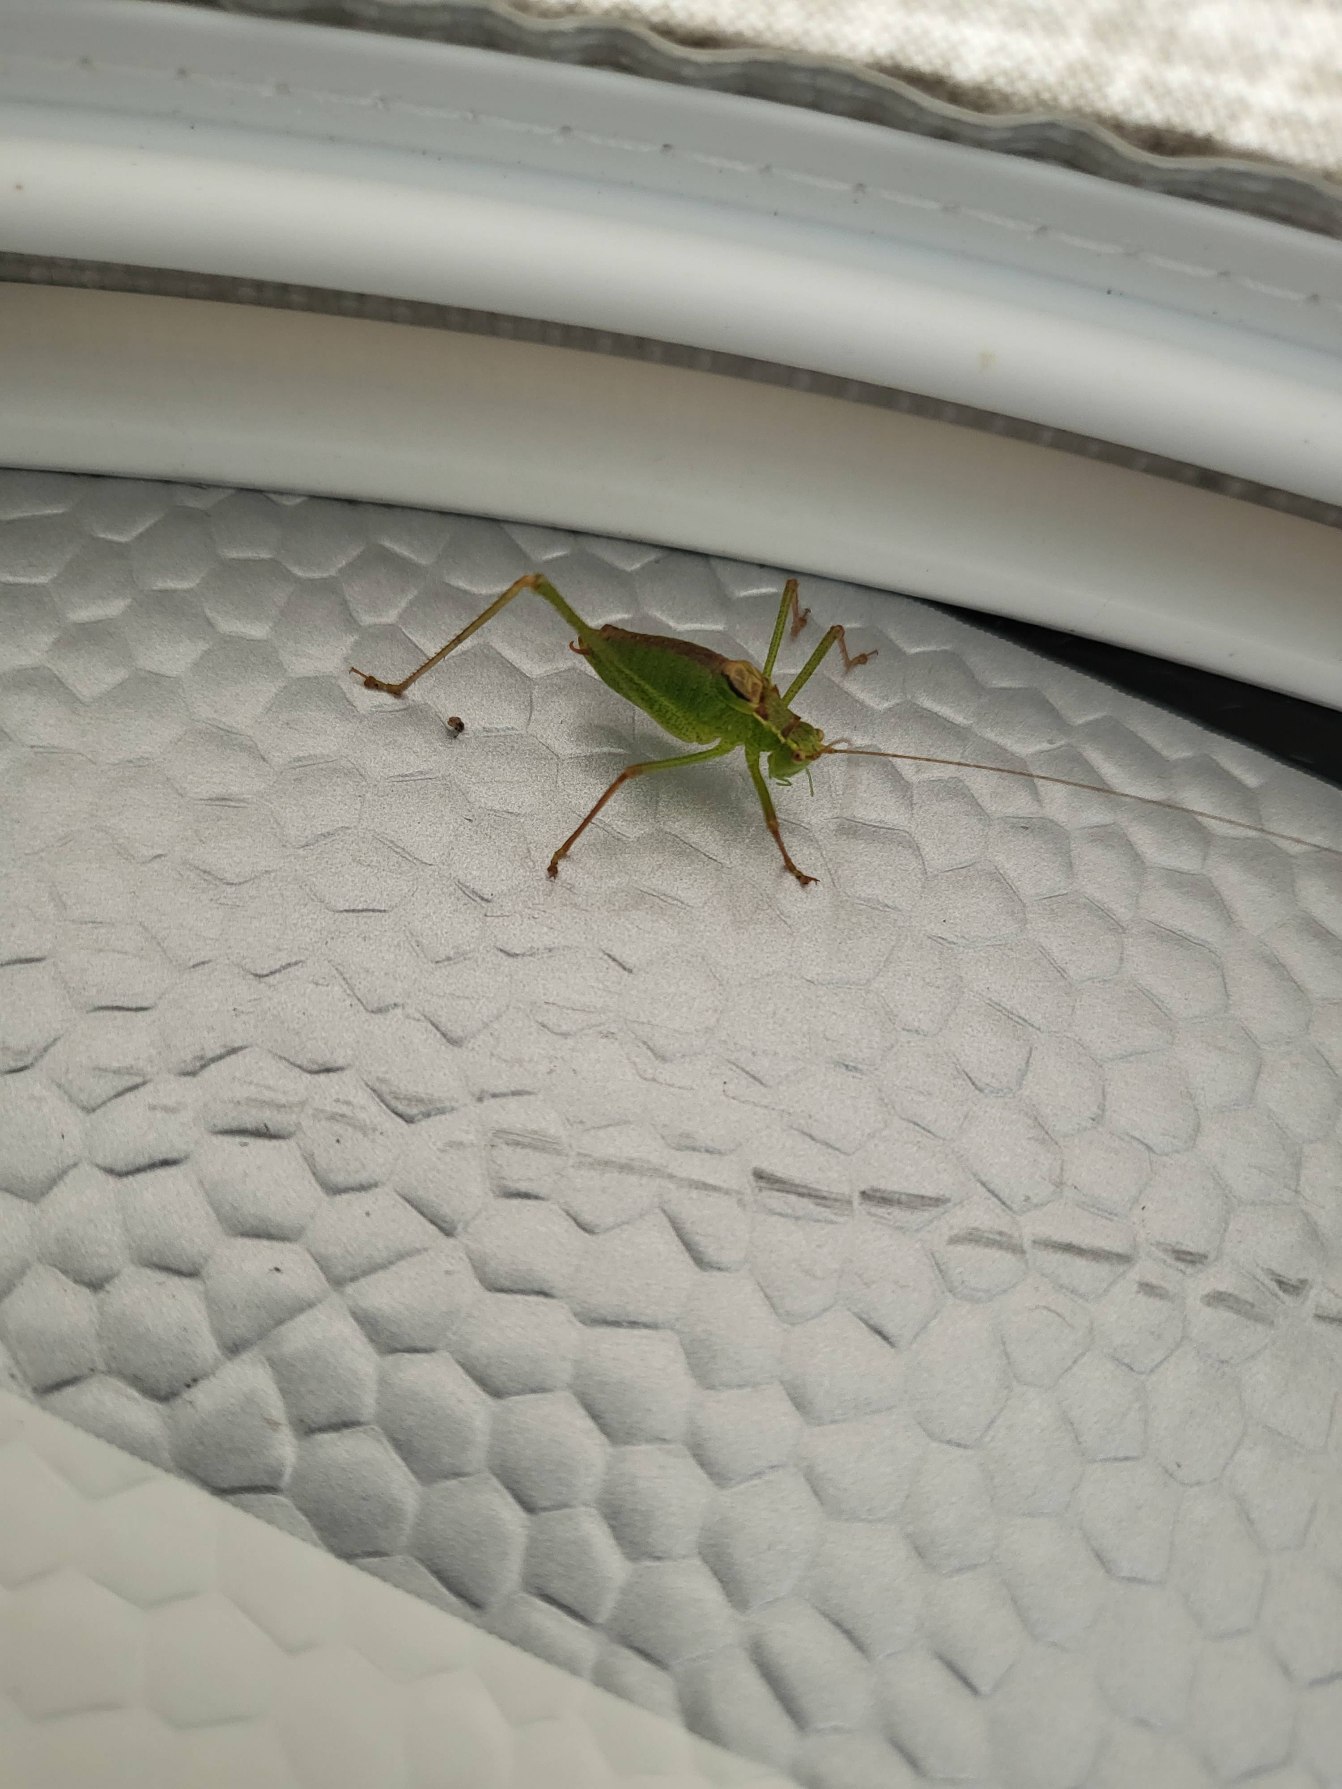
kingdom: Animalia
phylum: Arthropoda
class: Insecta
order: Orthoptera
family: Tettigoniidae
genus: Leptophyes
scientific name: Leptophyes punctatissima
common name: Krumknivgræshoppe
